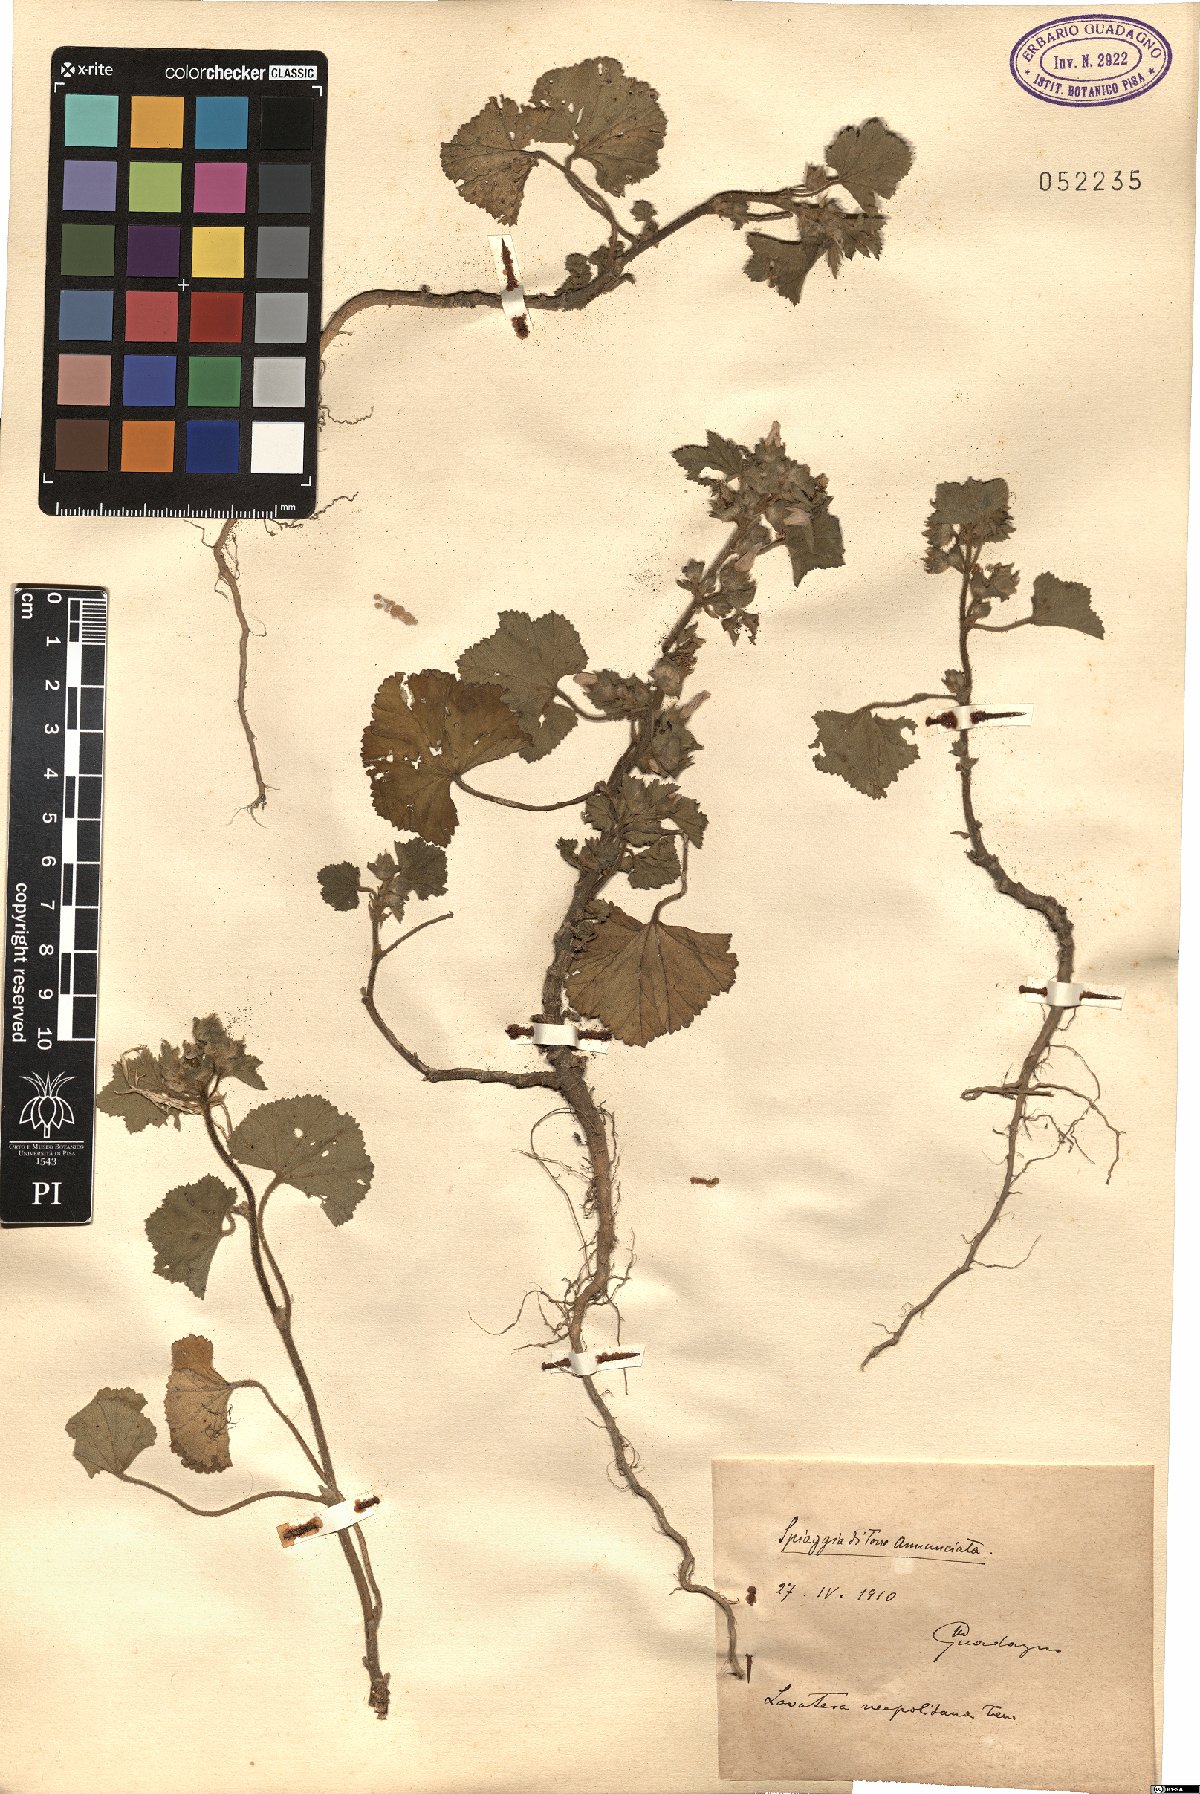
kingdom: Plantae
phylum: Tracheophyta
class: Magnoliopsida
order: Malvales
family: Malvaceae
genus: Malva
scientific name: Malva multiflora
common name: Cheeseweed
